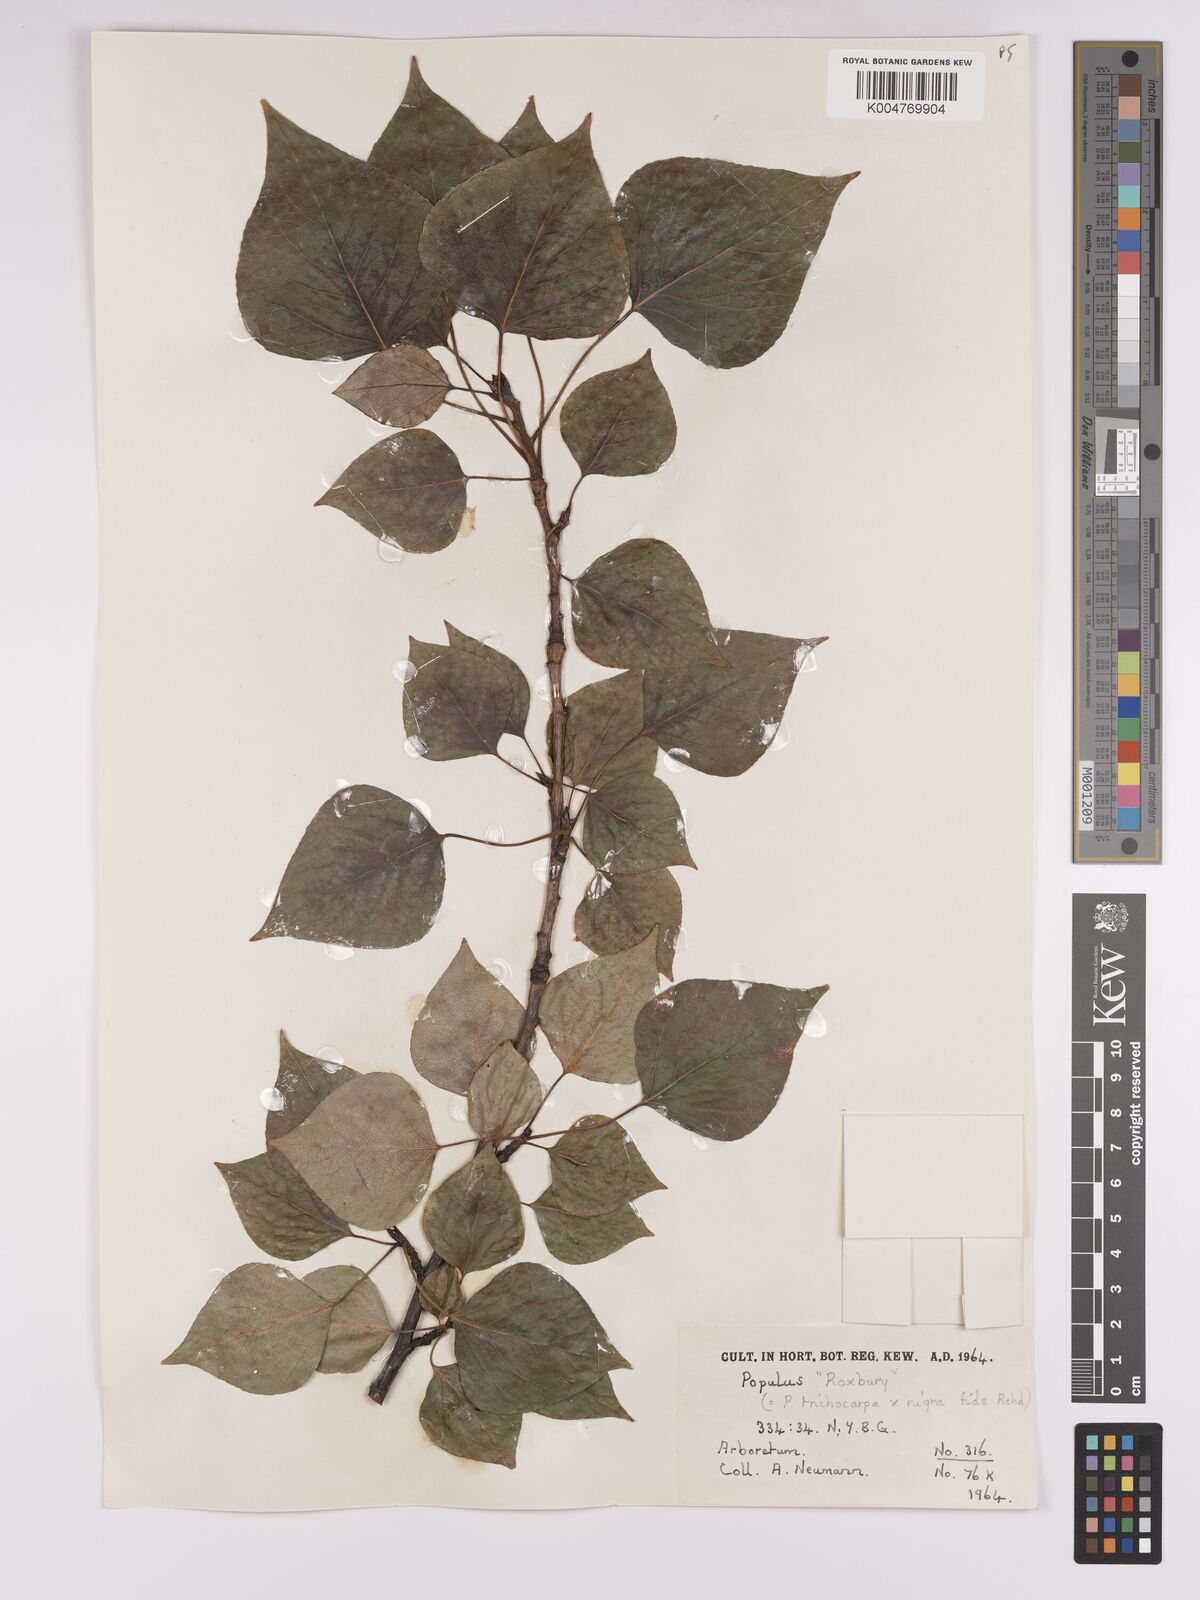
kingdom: Plantae
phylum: Tracheophyta
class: Magnoliopsida
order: Malpighiales
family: Salicaceae
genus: Populus
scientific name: Populus
